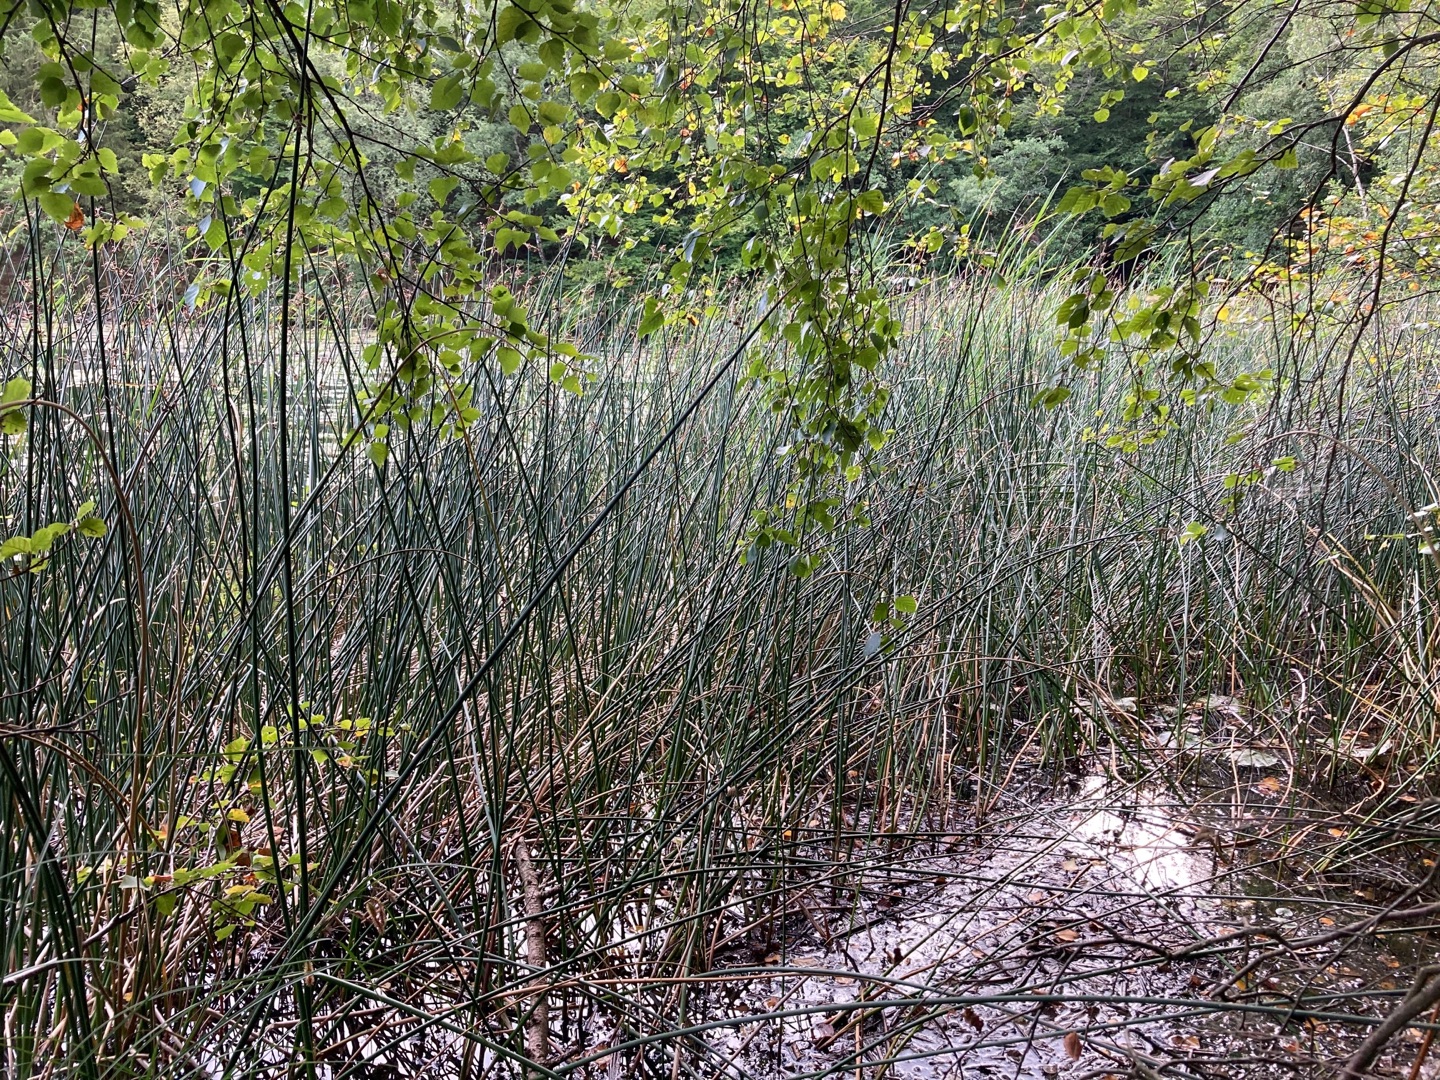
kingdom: Plantae
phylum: Tracheophyta
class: Liliopsida
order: Poales
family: Cyperaceae
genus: Schoenoplectus
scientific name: Schoenoplectus lacustris
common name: Sø-kogleaks
